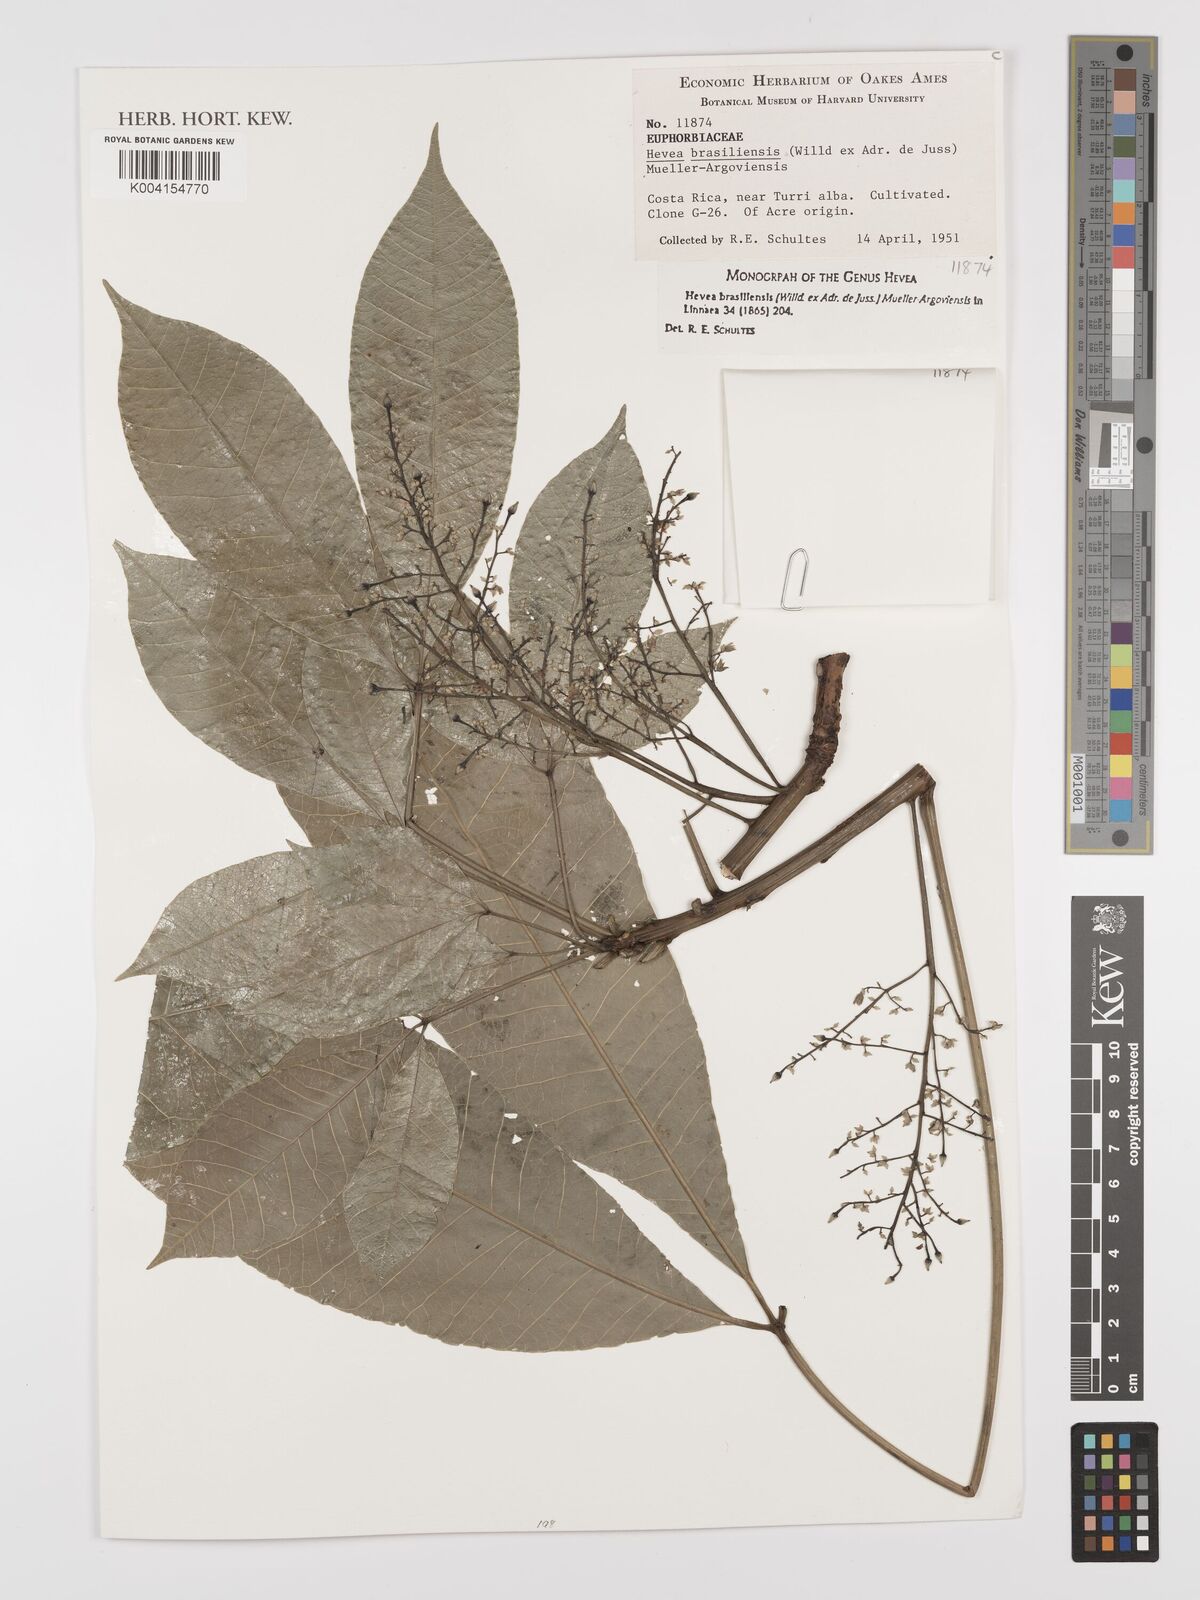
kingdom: Plantae
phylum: Tracheophyta
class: Magnoliopsida
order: Malpighiales
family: Euphorbiaceae
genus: Hevea
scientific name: Hevea brasiliensis
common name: Natural rubber
